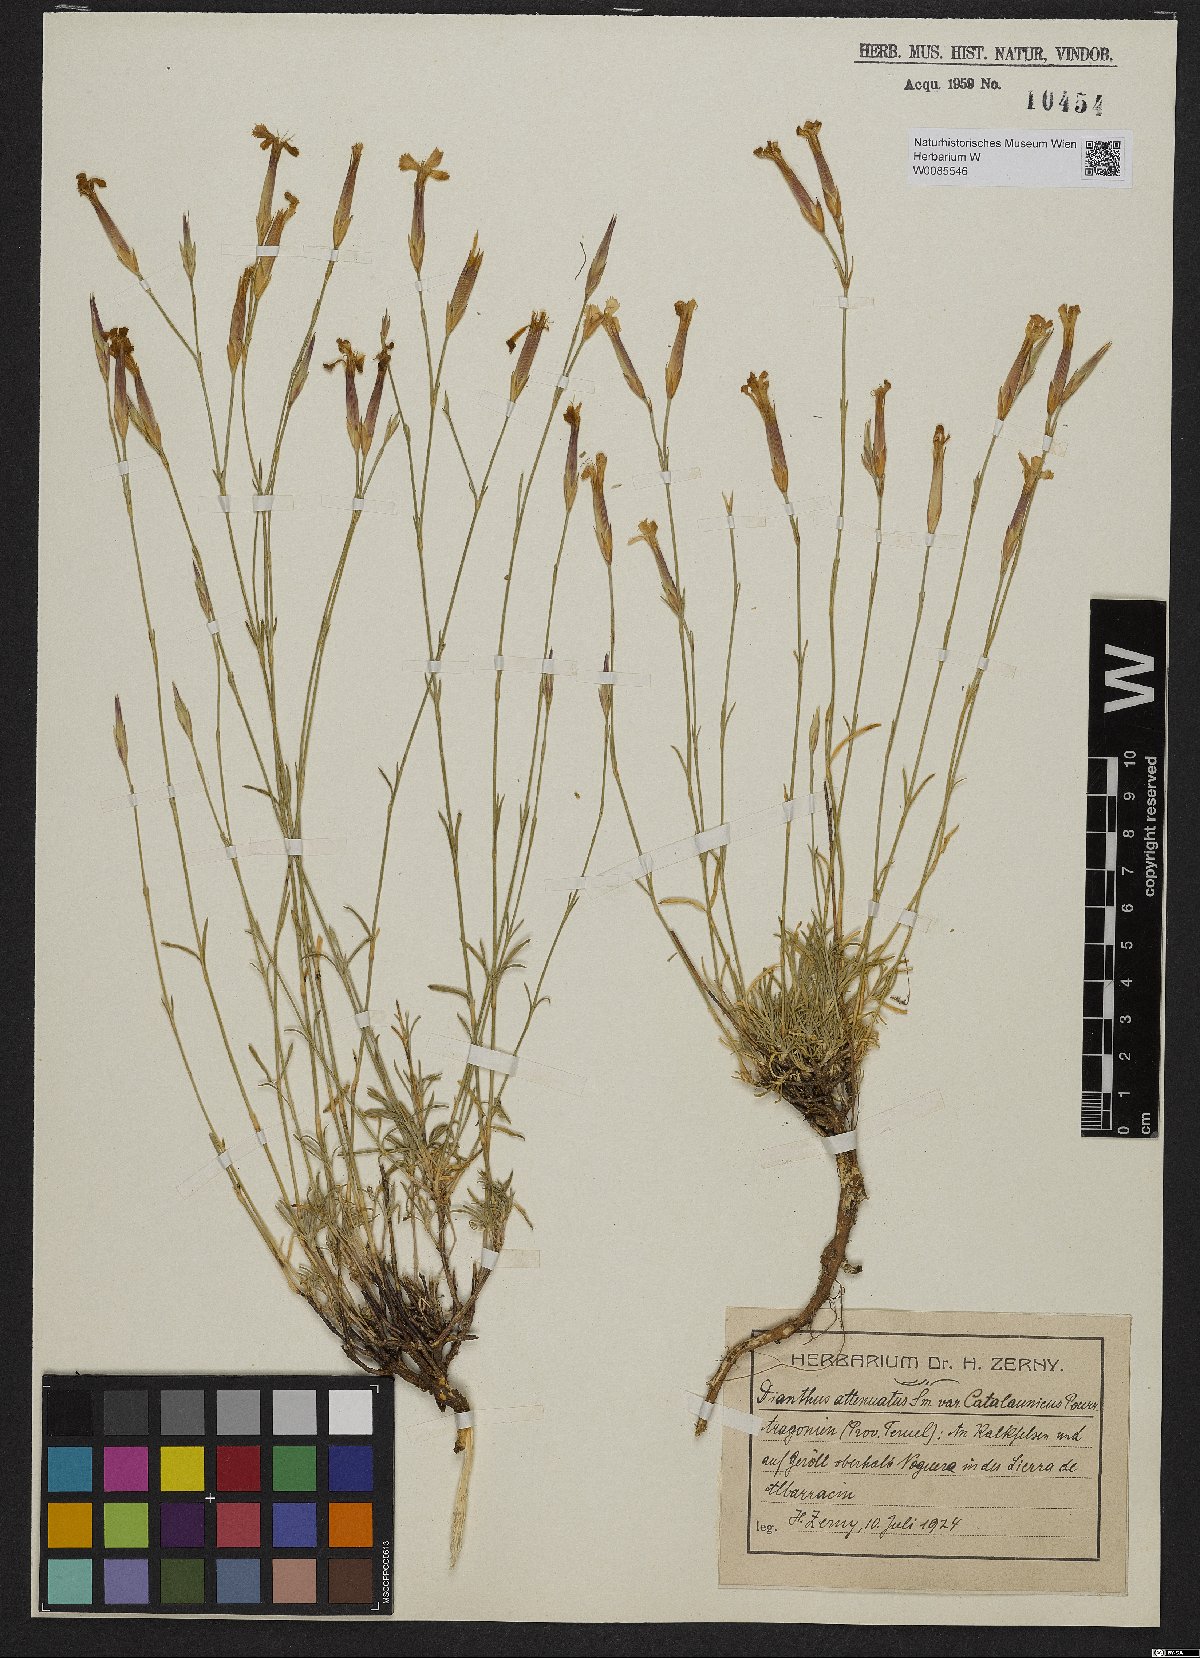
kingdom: Plantae
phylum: Tracheophyta
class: Magnoliopsida
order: Caryophyllales
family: Caryophyllaceae
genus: Dianthus
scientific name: Dianthus pyrenaicus
